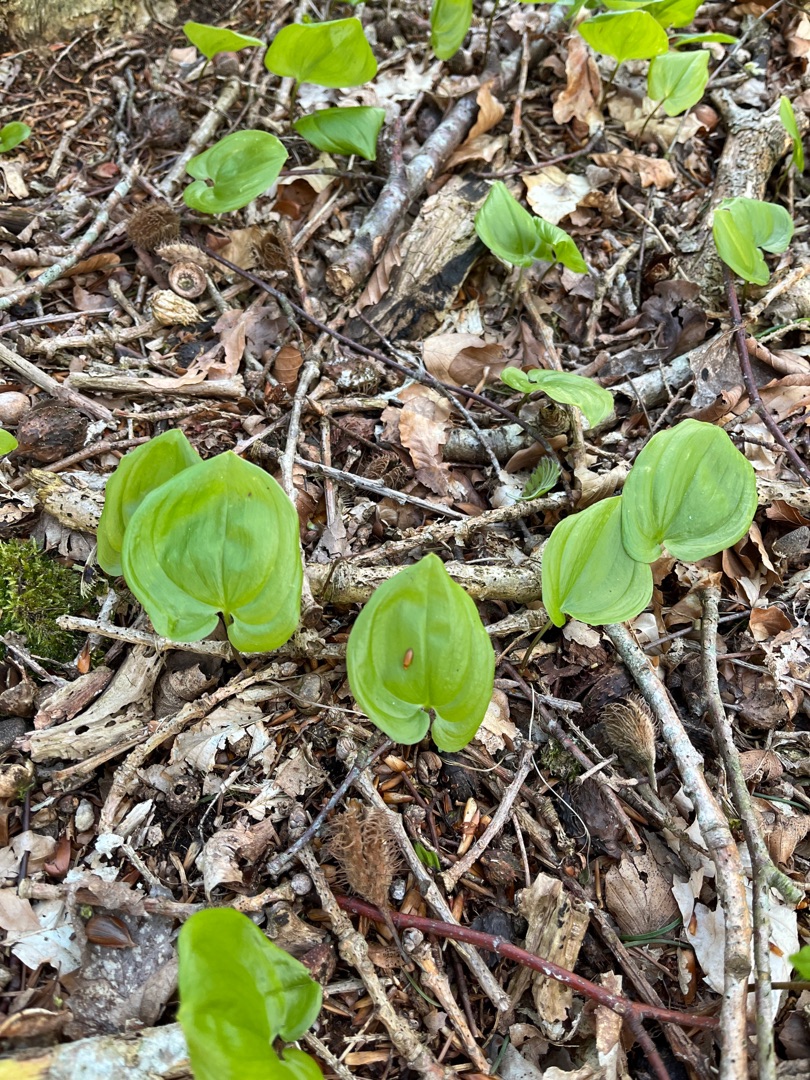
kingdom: Plantae
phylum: Tracheophyta
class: Liliopsida
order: Asparagales
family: Asparagaceae
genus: Maianthemum
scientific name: Maianthemum bifolium
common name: Majblomst
